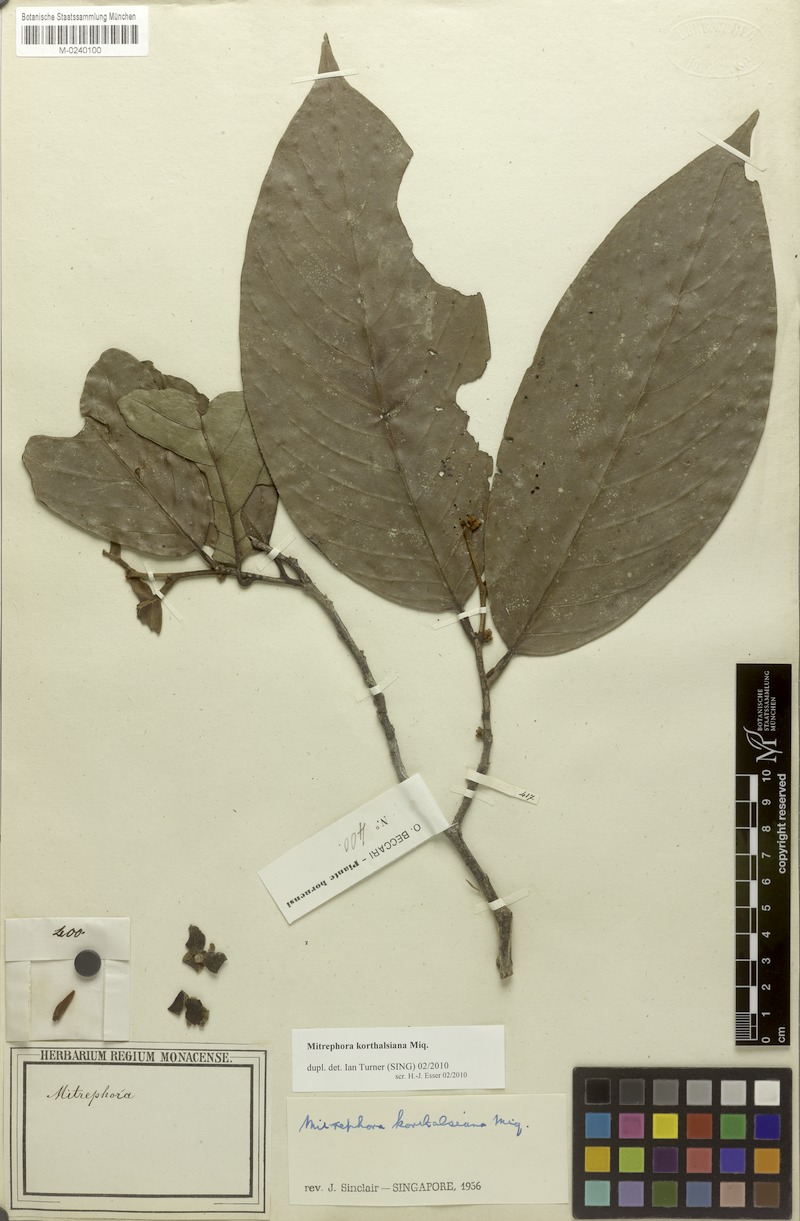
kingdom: Plantae
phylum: Tracheophyta
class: Magnoliopsida
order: Magnoliales
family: Annonaceae
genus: Mitrephora
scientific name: Mitrephora korthalsiana
